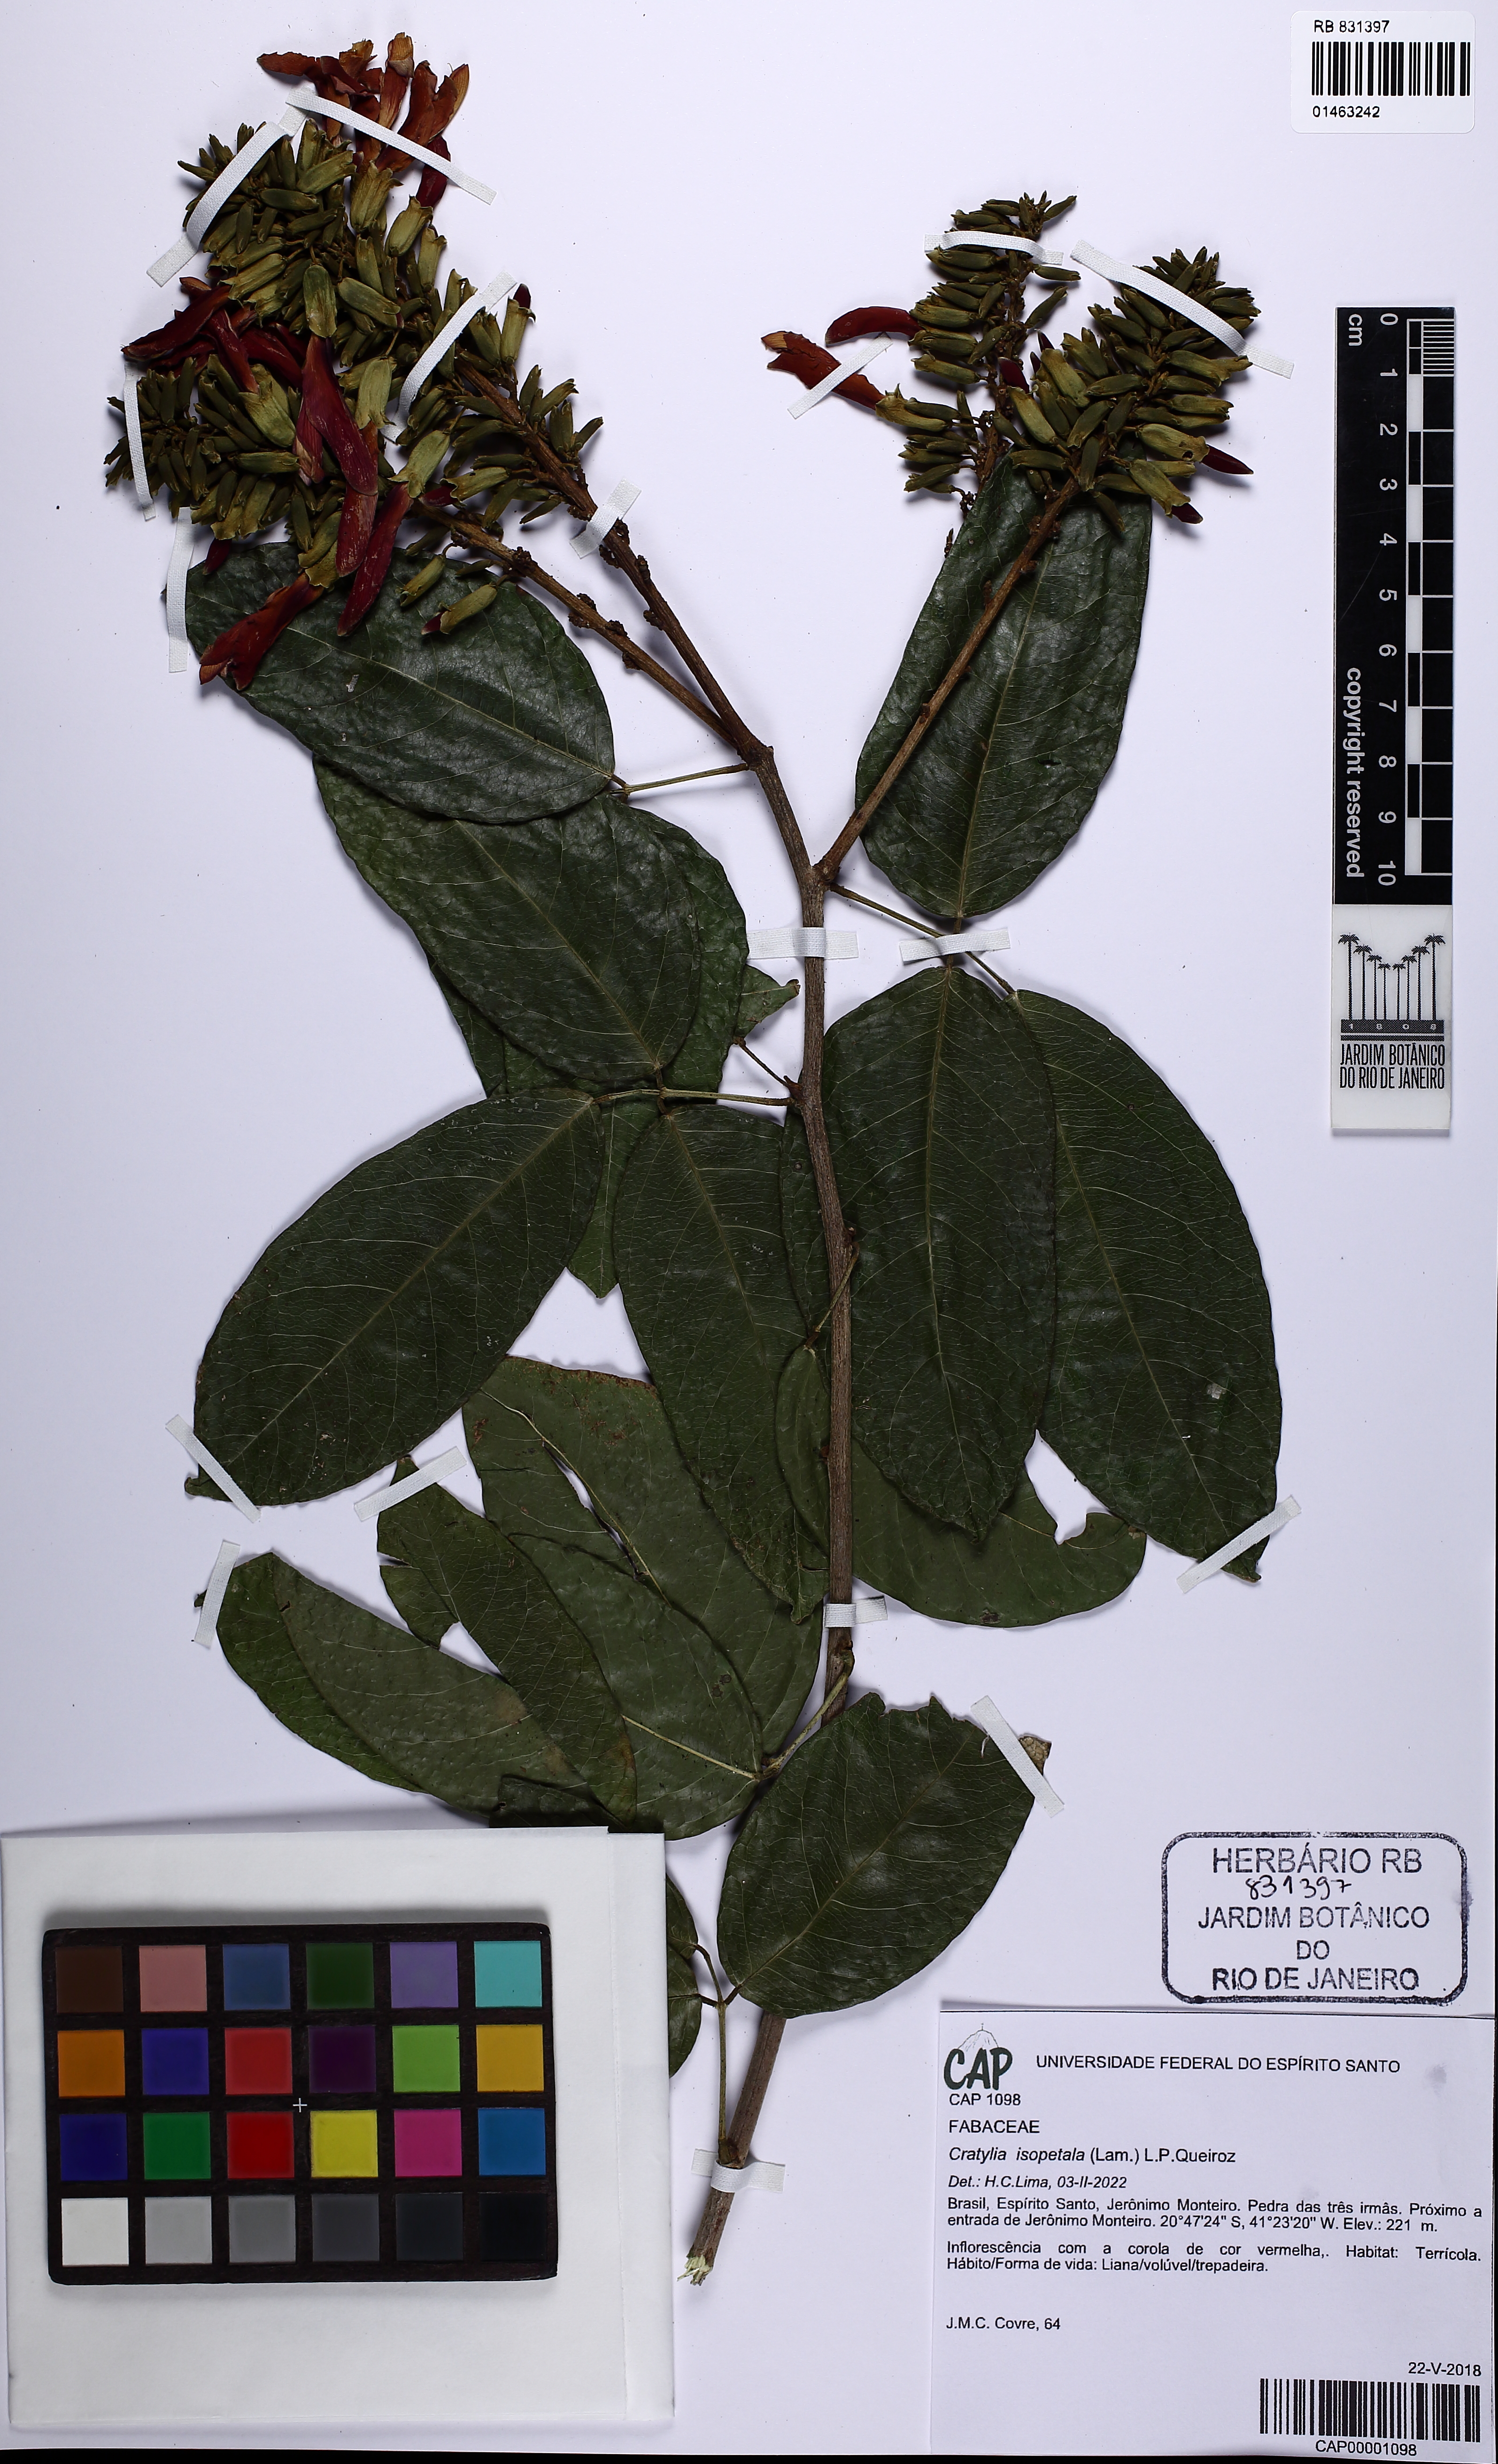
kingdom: Plantae
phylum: Tracheophyta
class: Magnoliopsida
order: Fabales
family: Fabaceae
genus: Cratylia
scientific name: Cratylia isopetala
